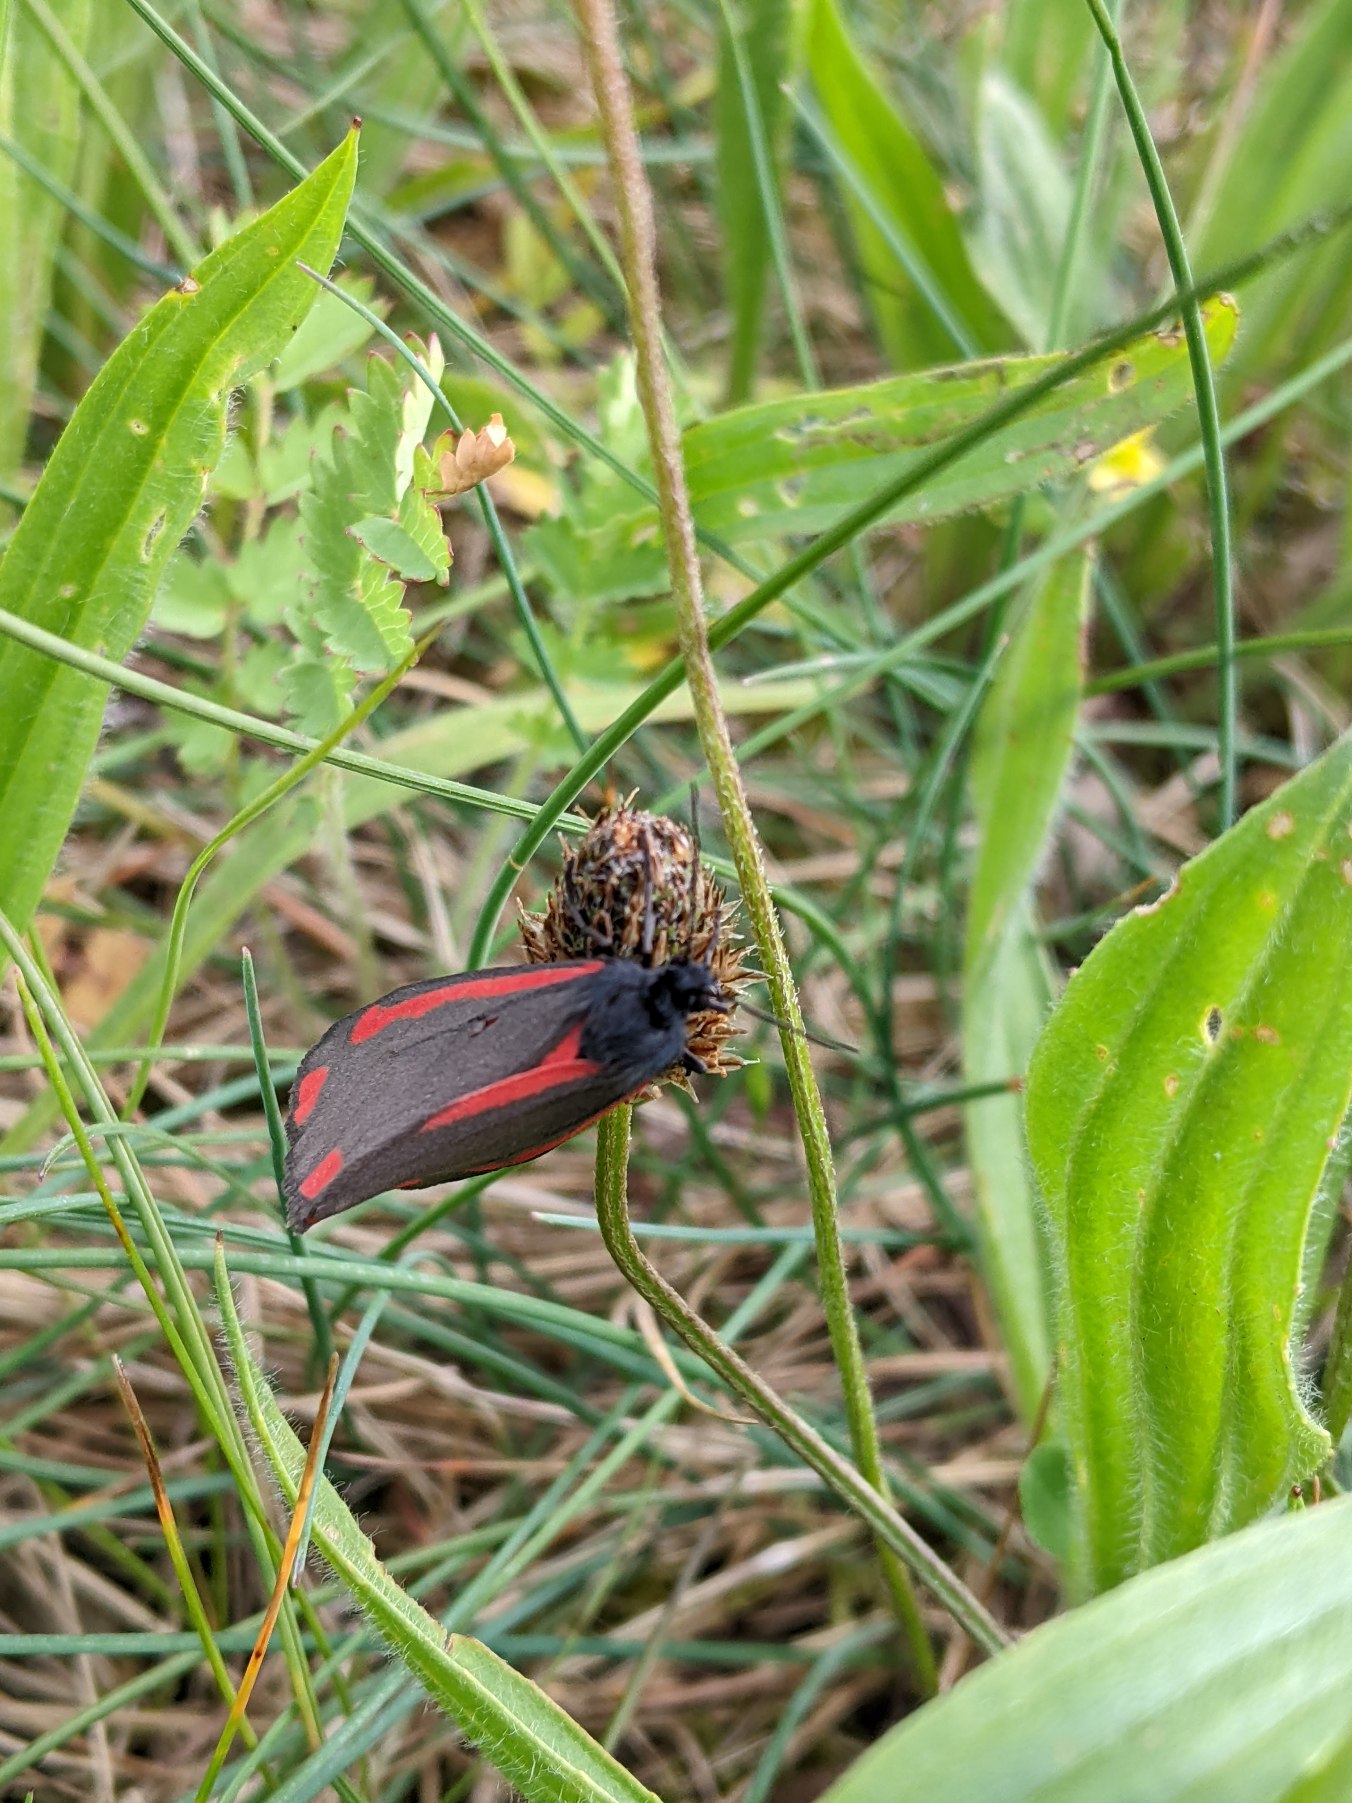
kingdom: Animalia
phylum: Arthropoda
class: Insecta
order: Lepidoptera
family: Erebidae
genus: Tyria
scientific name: Tyria jacobaeae
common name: Blodplet
